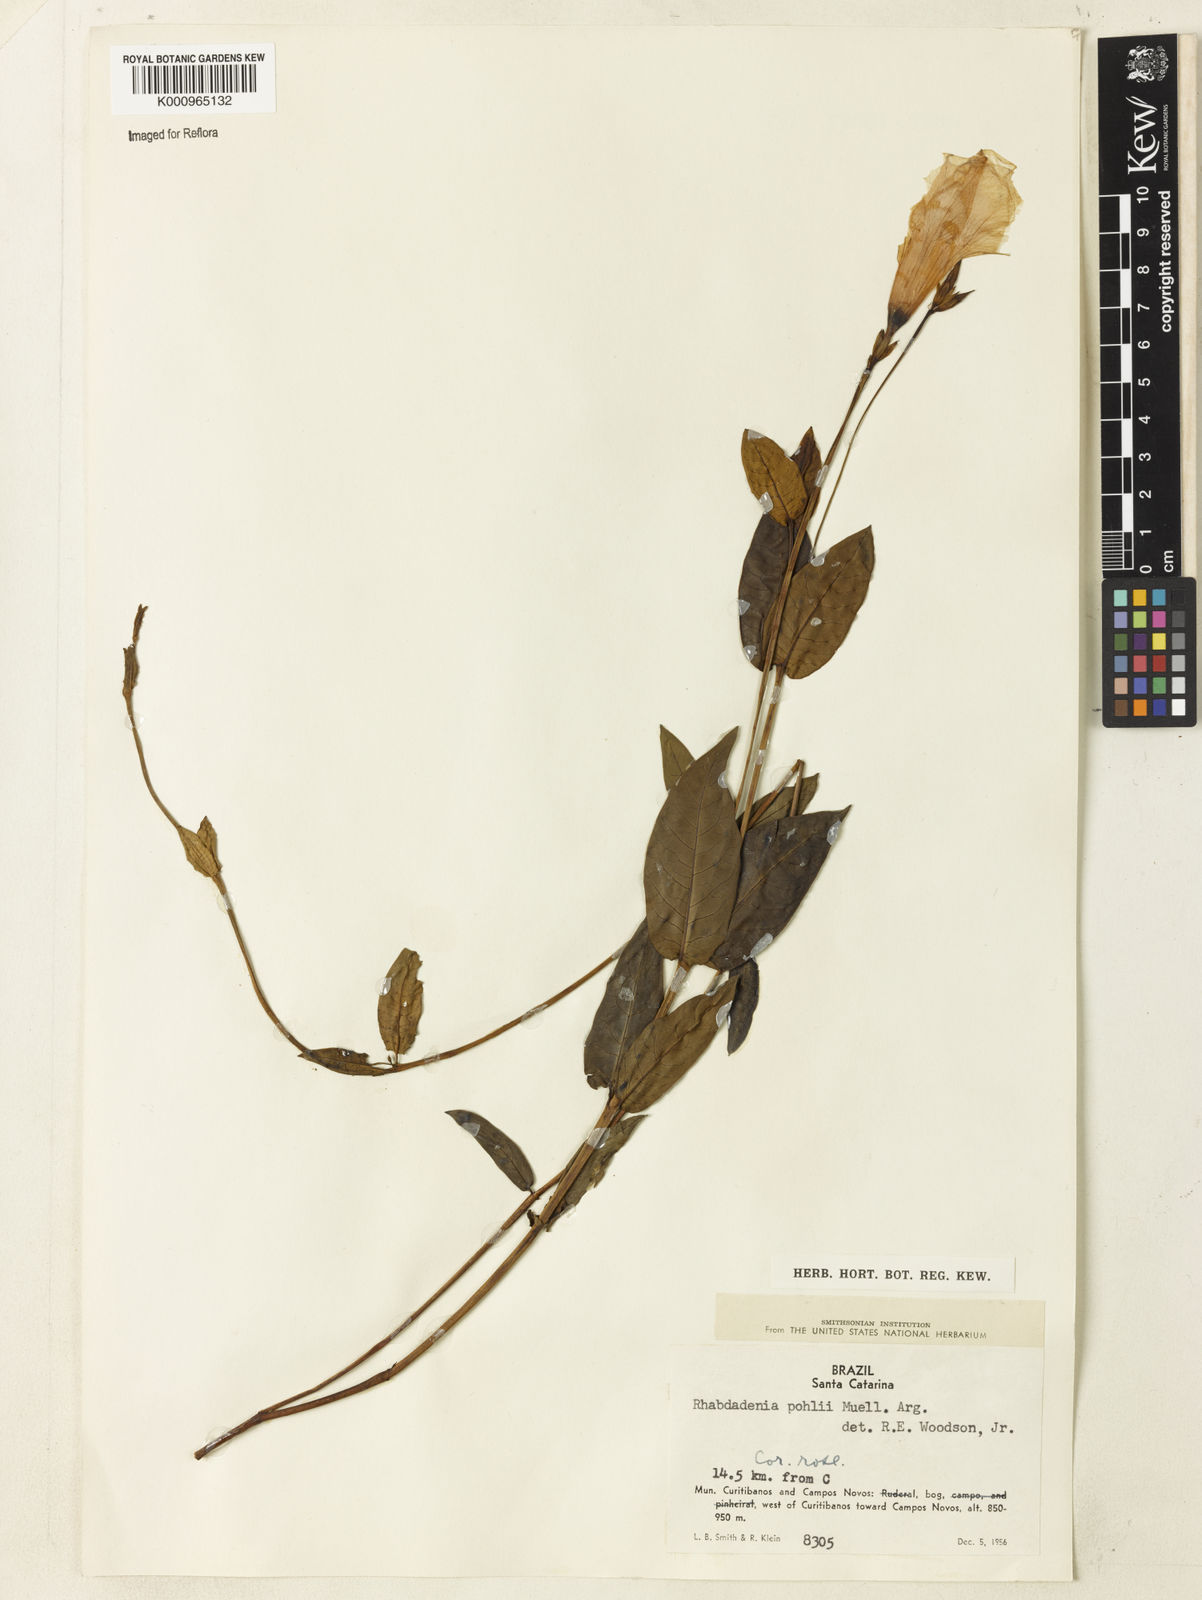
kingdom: Plantae
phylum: Tracheophyta
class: Magnoliopsida
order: Gentianales
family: Apocynaceae
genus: Rhabdadenia
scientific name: Rhabdadenia madida
